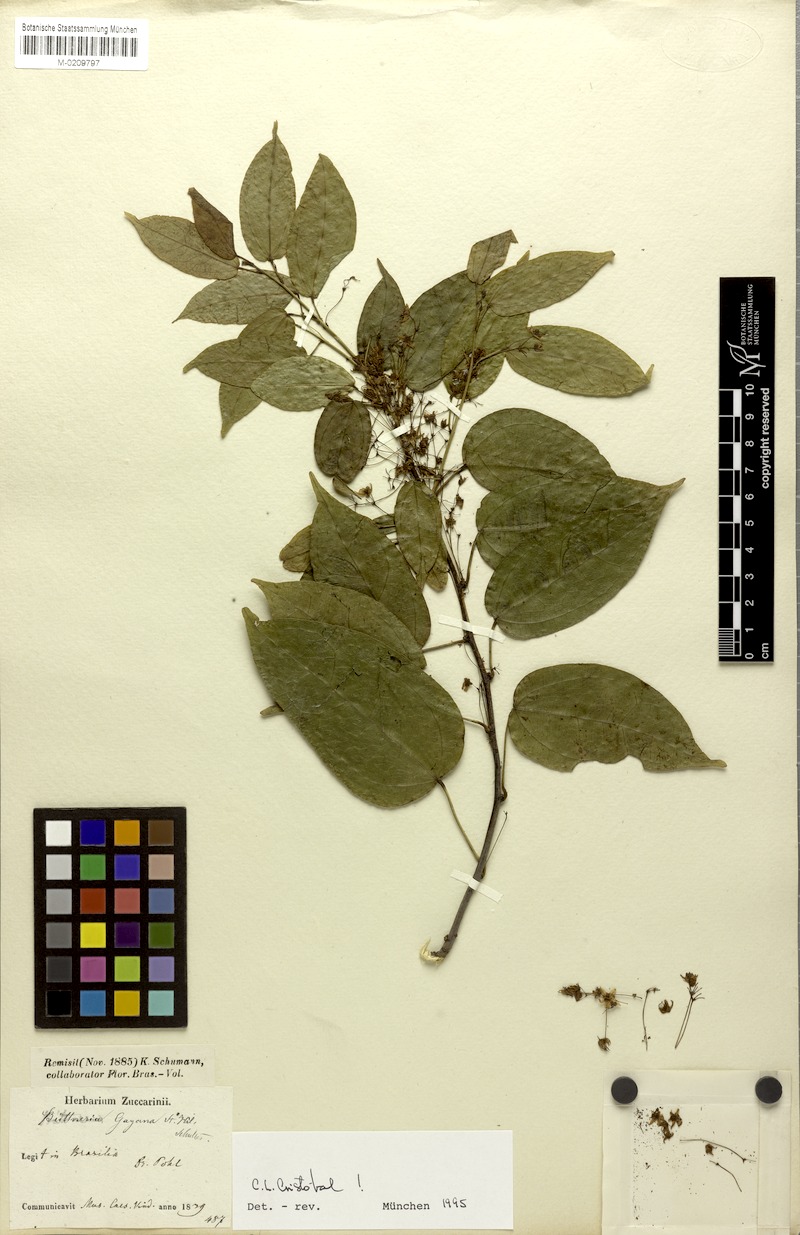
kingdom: Plantae
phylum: Tracheophyta
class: Magnoliopsida
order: Malvales
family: Malvaceae
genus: Byttneria
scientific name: Byttneria gayana
